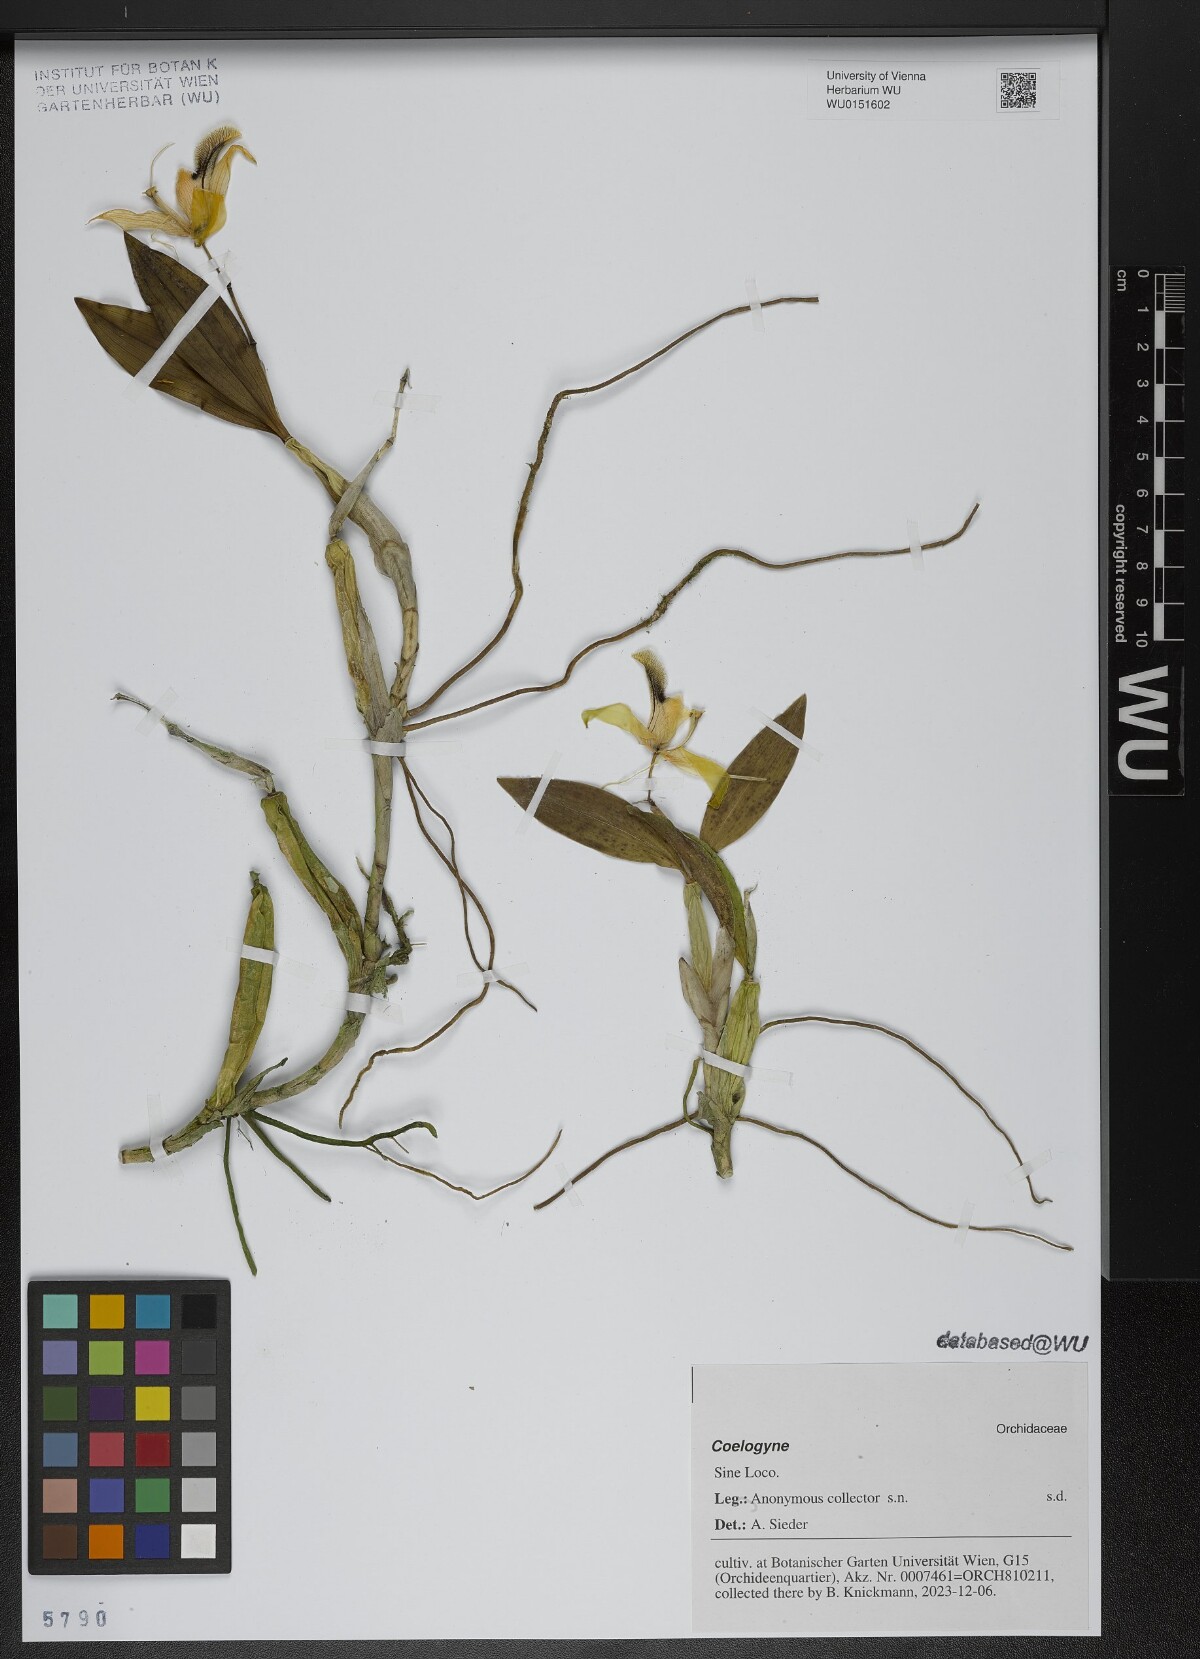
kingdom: Plantae
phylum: Tracheophyta
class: Liliopsida
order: Asparagales
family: Orchidaceae
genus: Coelogyne
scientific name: Coelogyne
